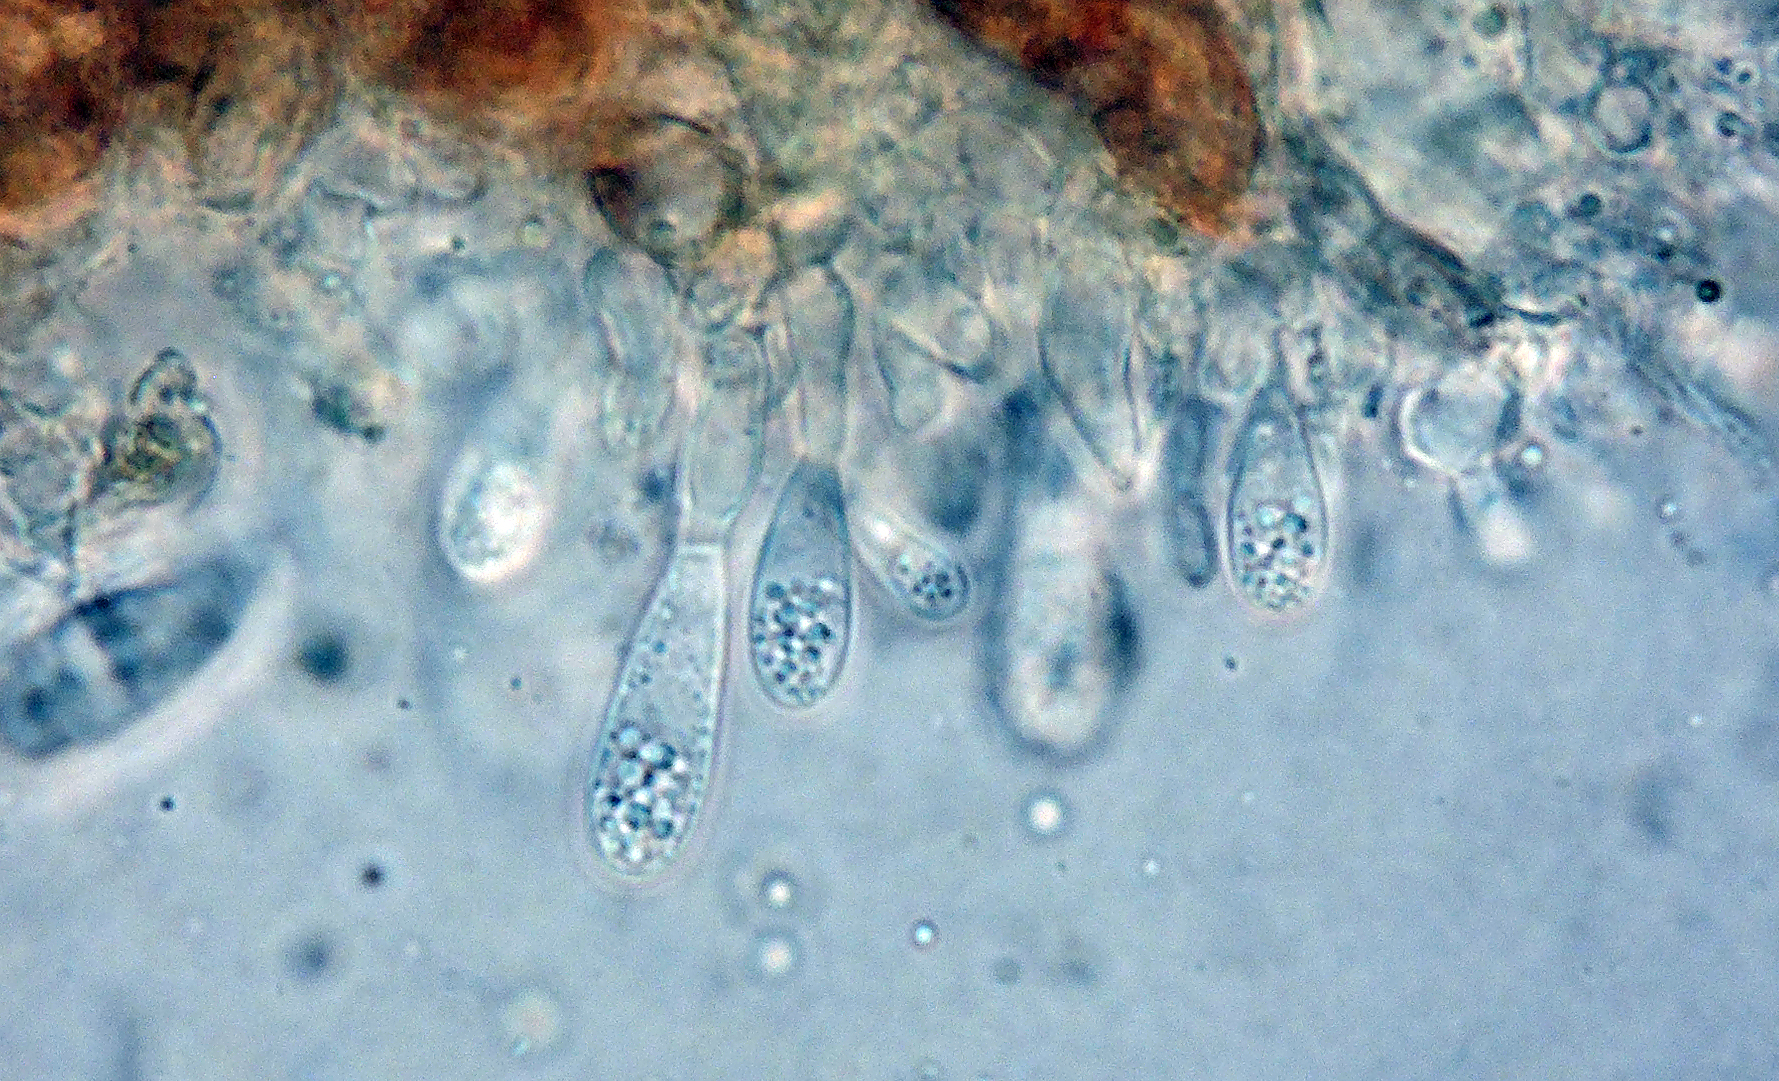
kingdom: Fungi
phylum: Ascomycota
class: Leotiomycetes
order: Helotiales
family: Drepanopezizaceae
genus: Drepanopeziza
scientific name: Drepanopeziza punctiformis
